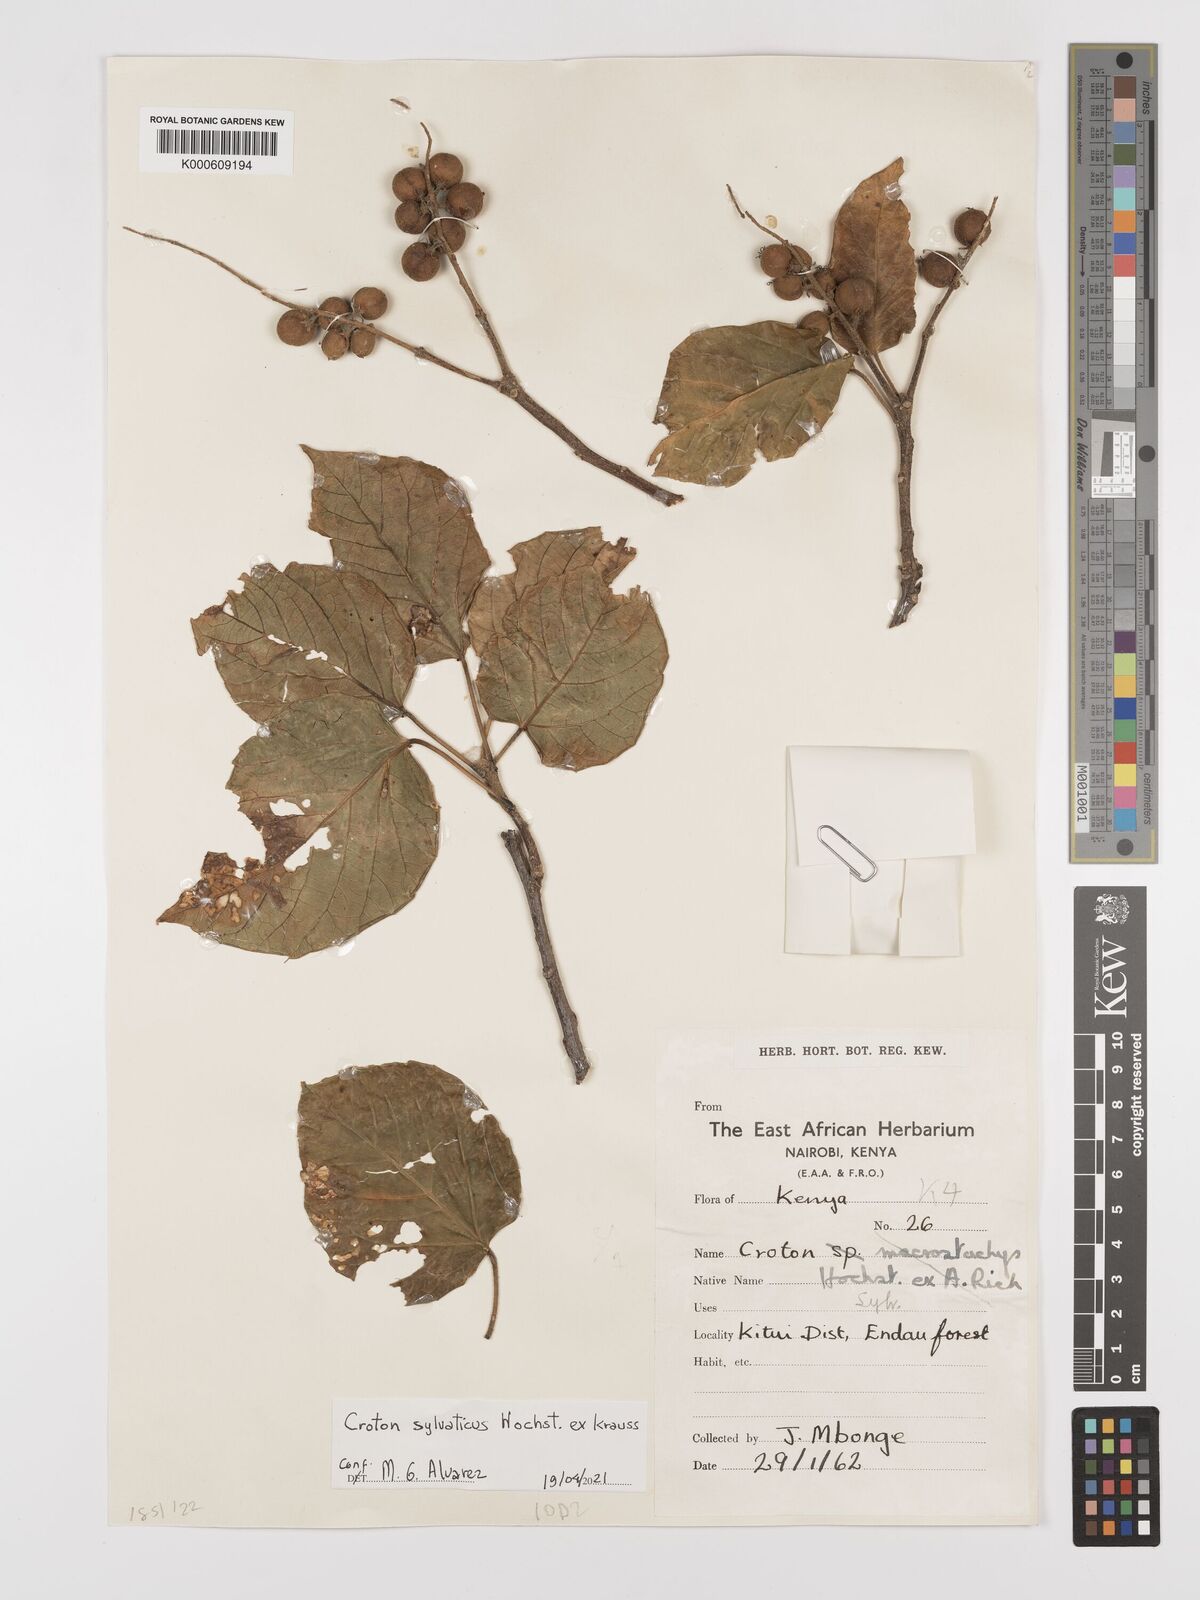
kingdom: Plantae
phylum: Tracheophyta
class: Magnoliopsida
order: Malpighiales
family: Euphorbiaceae
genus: Croton
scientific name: Croton sylvaticus
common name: Forest croton
